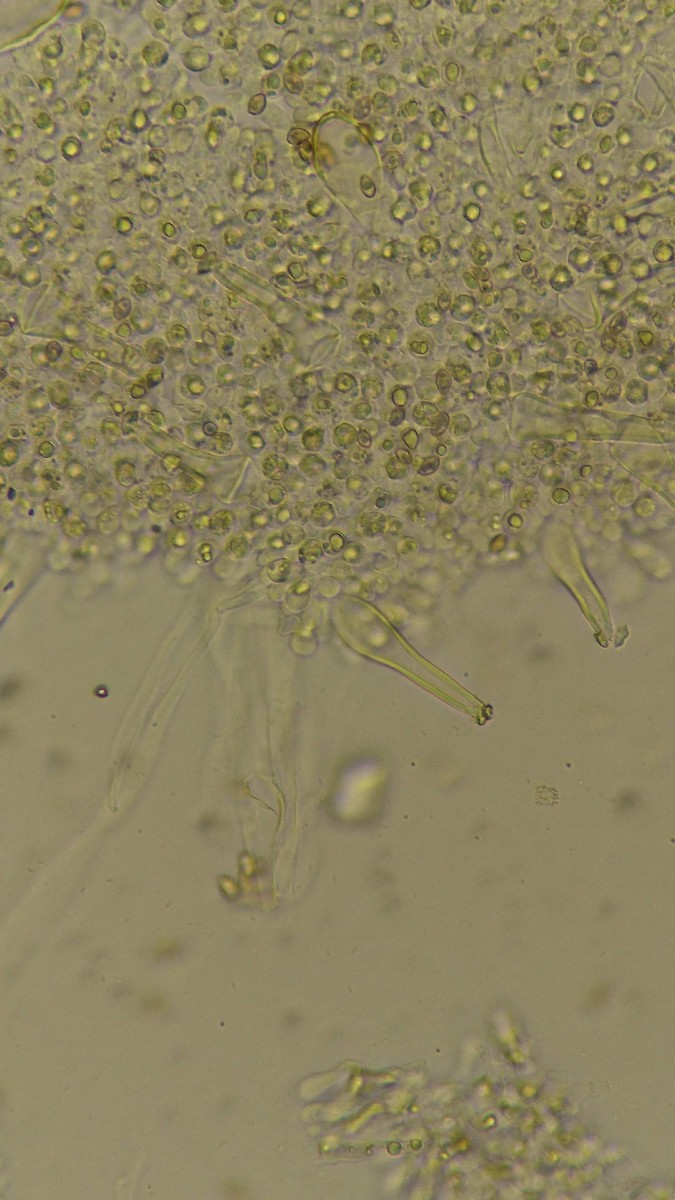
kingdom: Fungi
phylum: Basidiomycota
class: Agaricomycetes
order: Agaricales
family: Inocybaceae
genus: Inocybe
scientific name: Inocybe
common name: trævlhat
